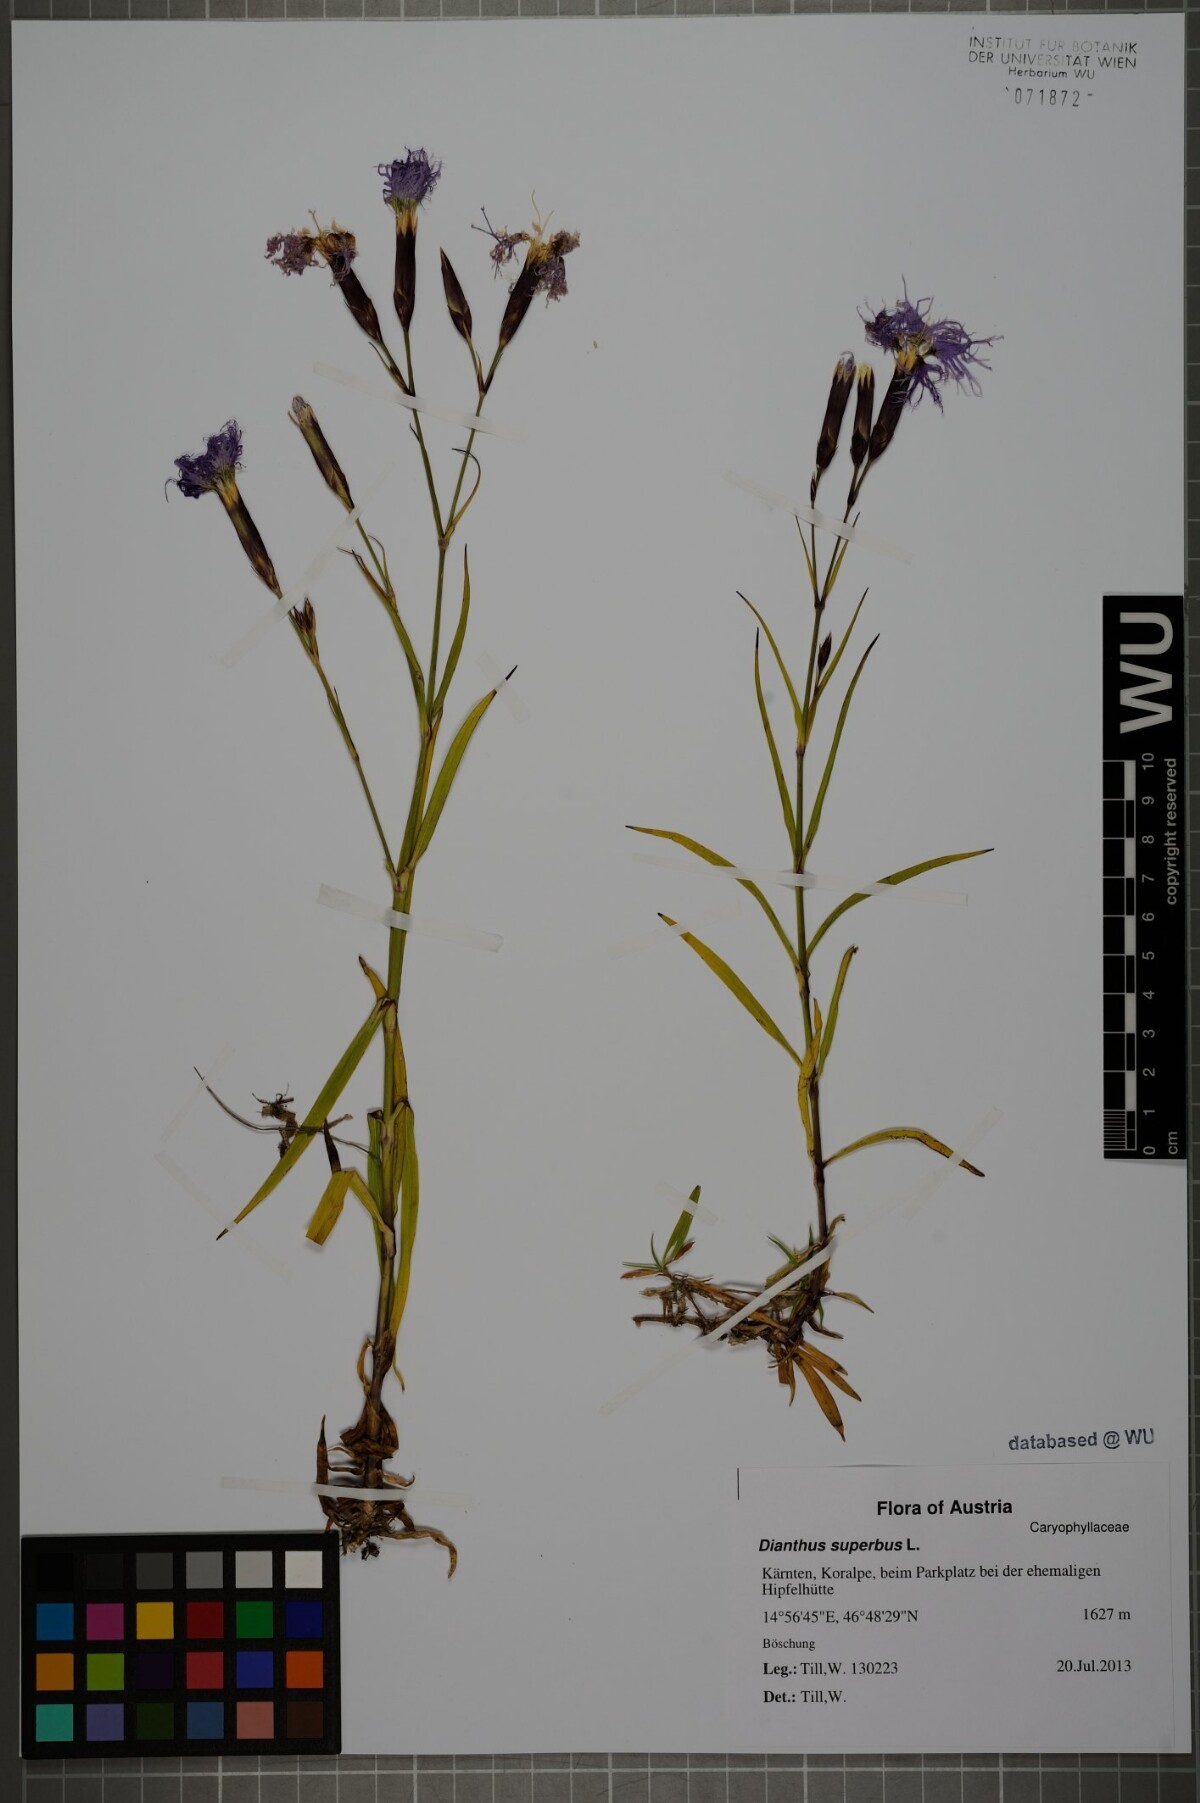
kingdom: Plantae
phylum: Tracheophyta
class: Magnoliopsida
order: Caryophyllales
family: Caryophyllaceae
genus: Dianthus
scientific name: Dianthus superbus
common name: Fringed pink
